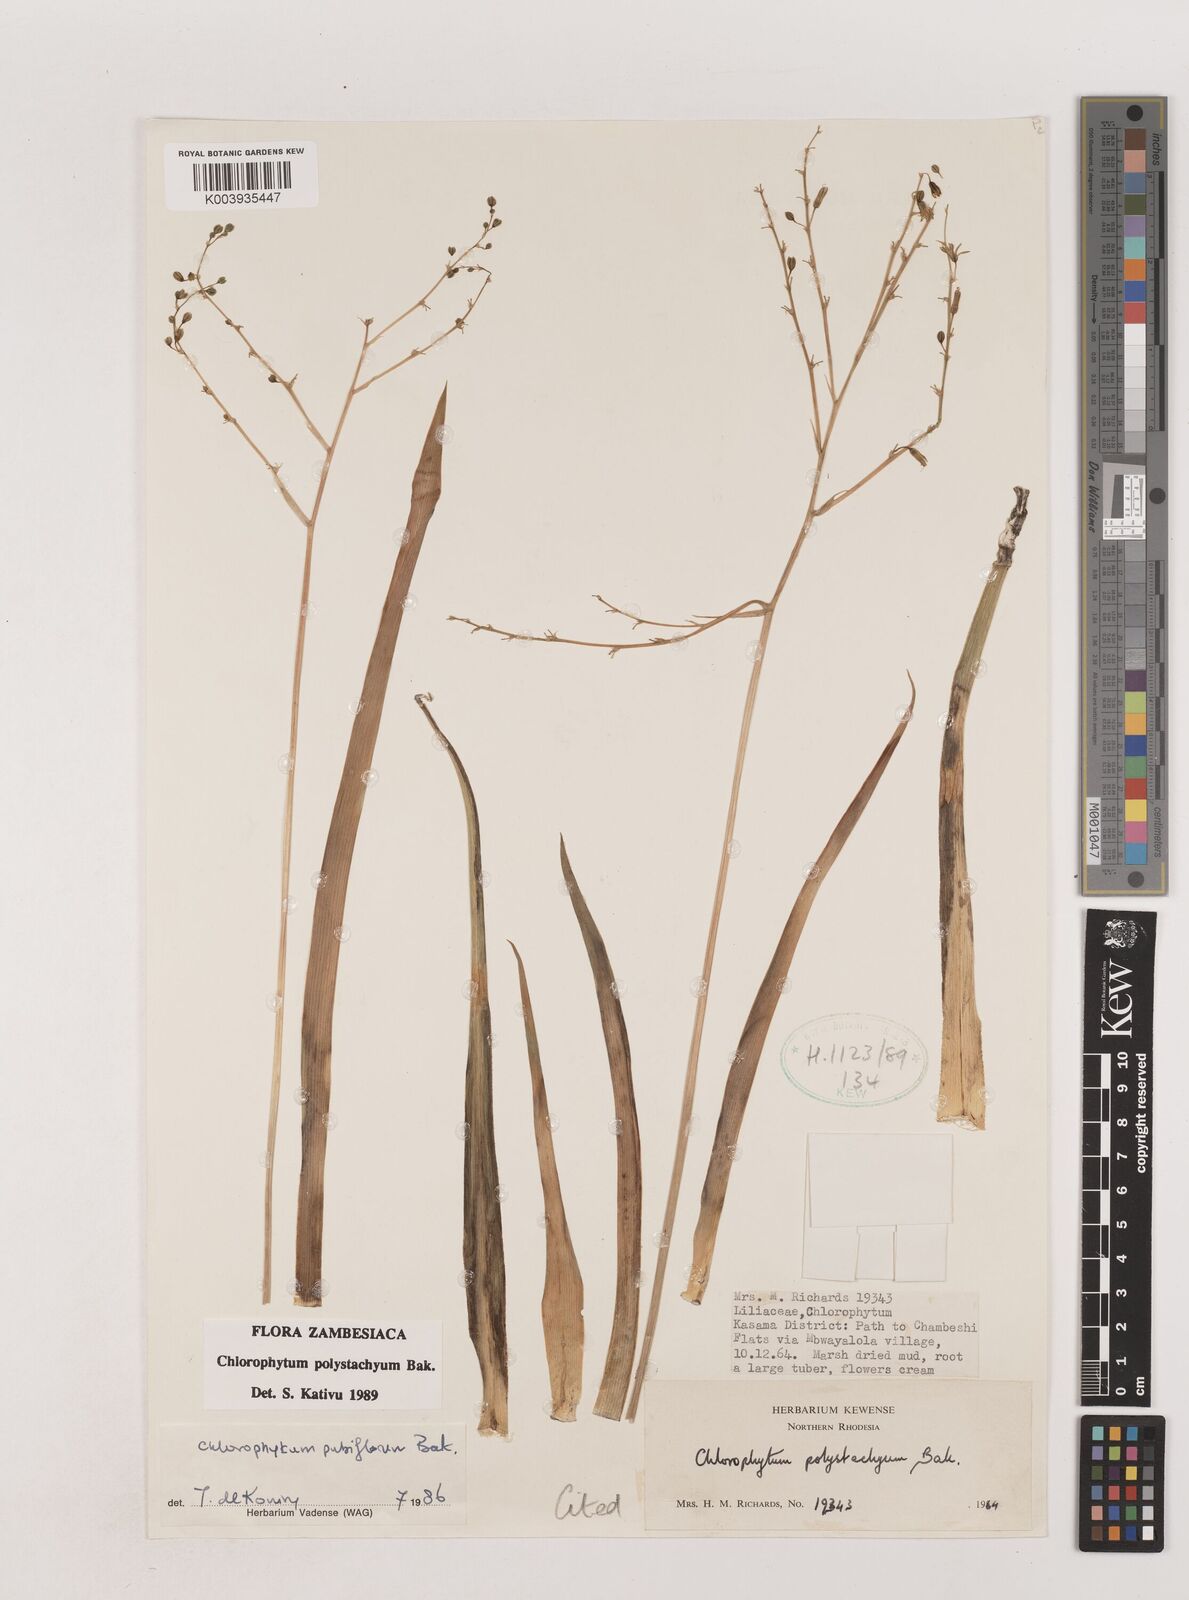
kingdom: Plantae
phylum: Tracheophyta
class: Liliopsida
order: Asparagales
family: Asparagaceae
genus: Chlorophytum
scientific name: Chlorophytum polystachys
